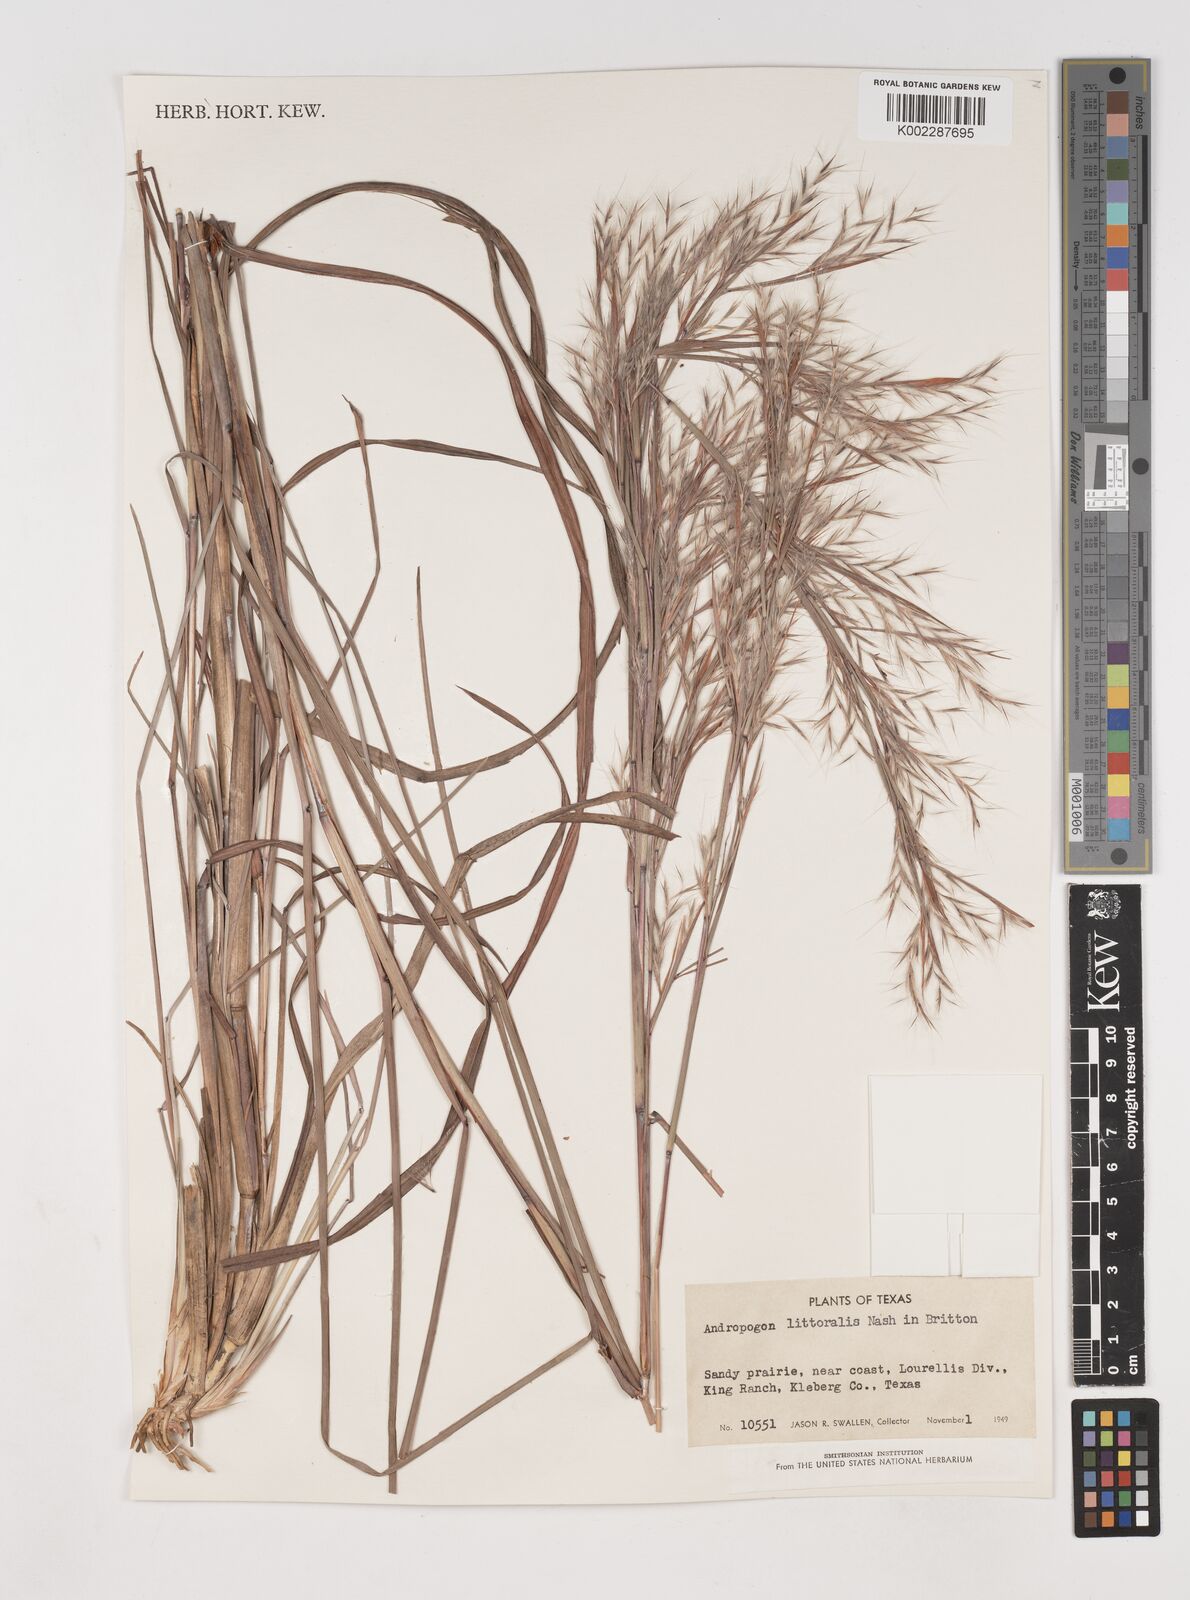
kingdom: Plantae
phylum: Tracheophyta
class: Liliopsida
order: Poales
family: Poaceae
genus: Schizachyrium
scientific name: Schizachyrium scoparium
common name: Little bluestem
